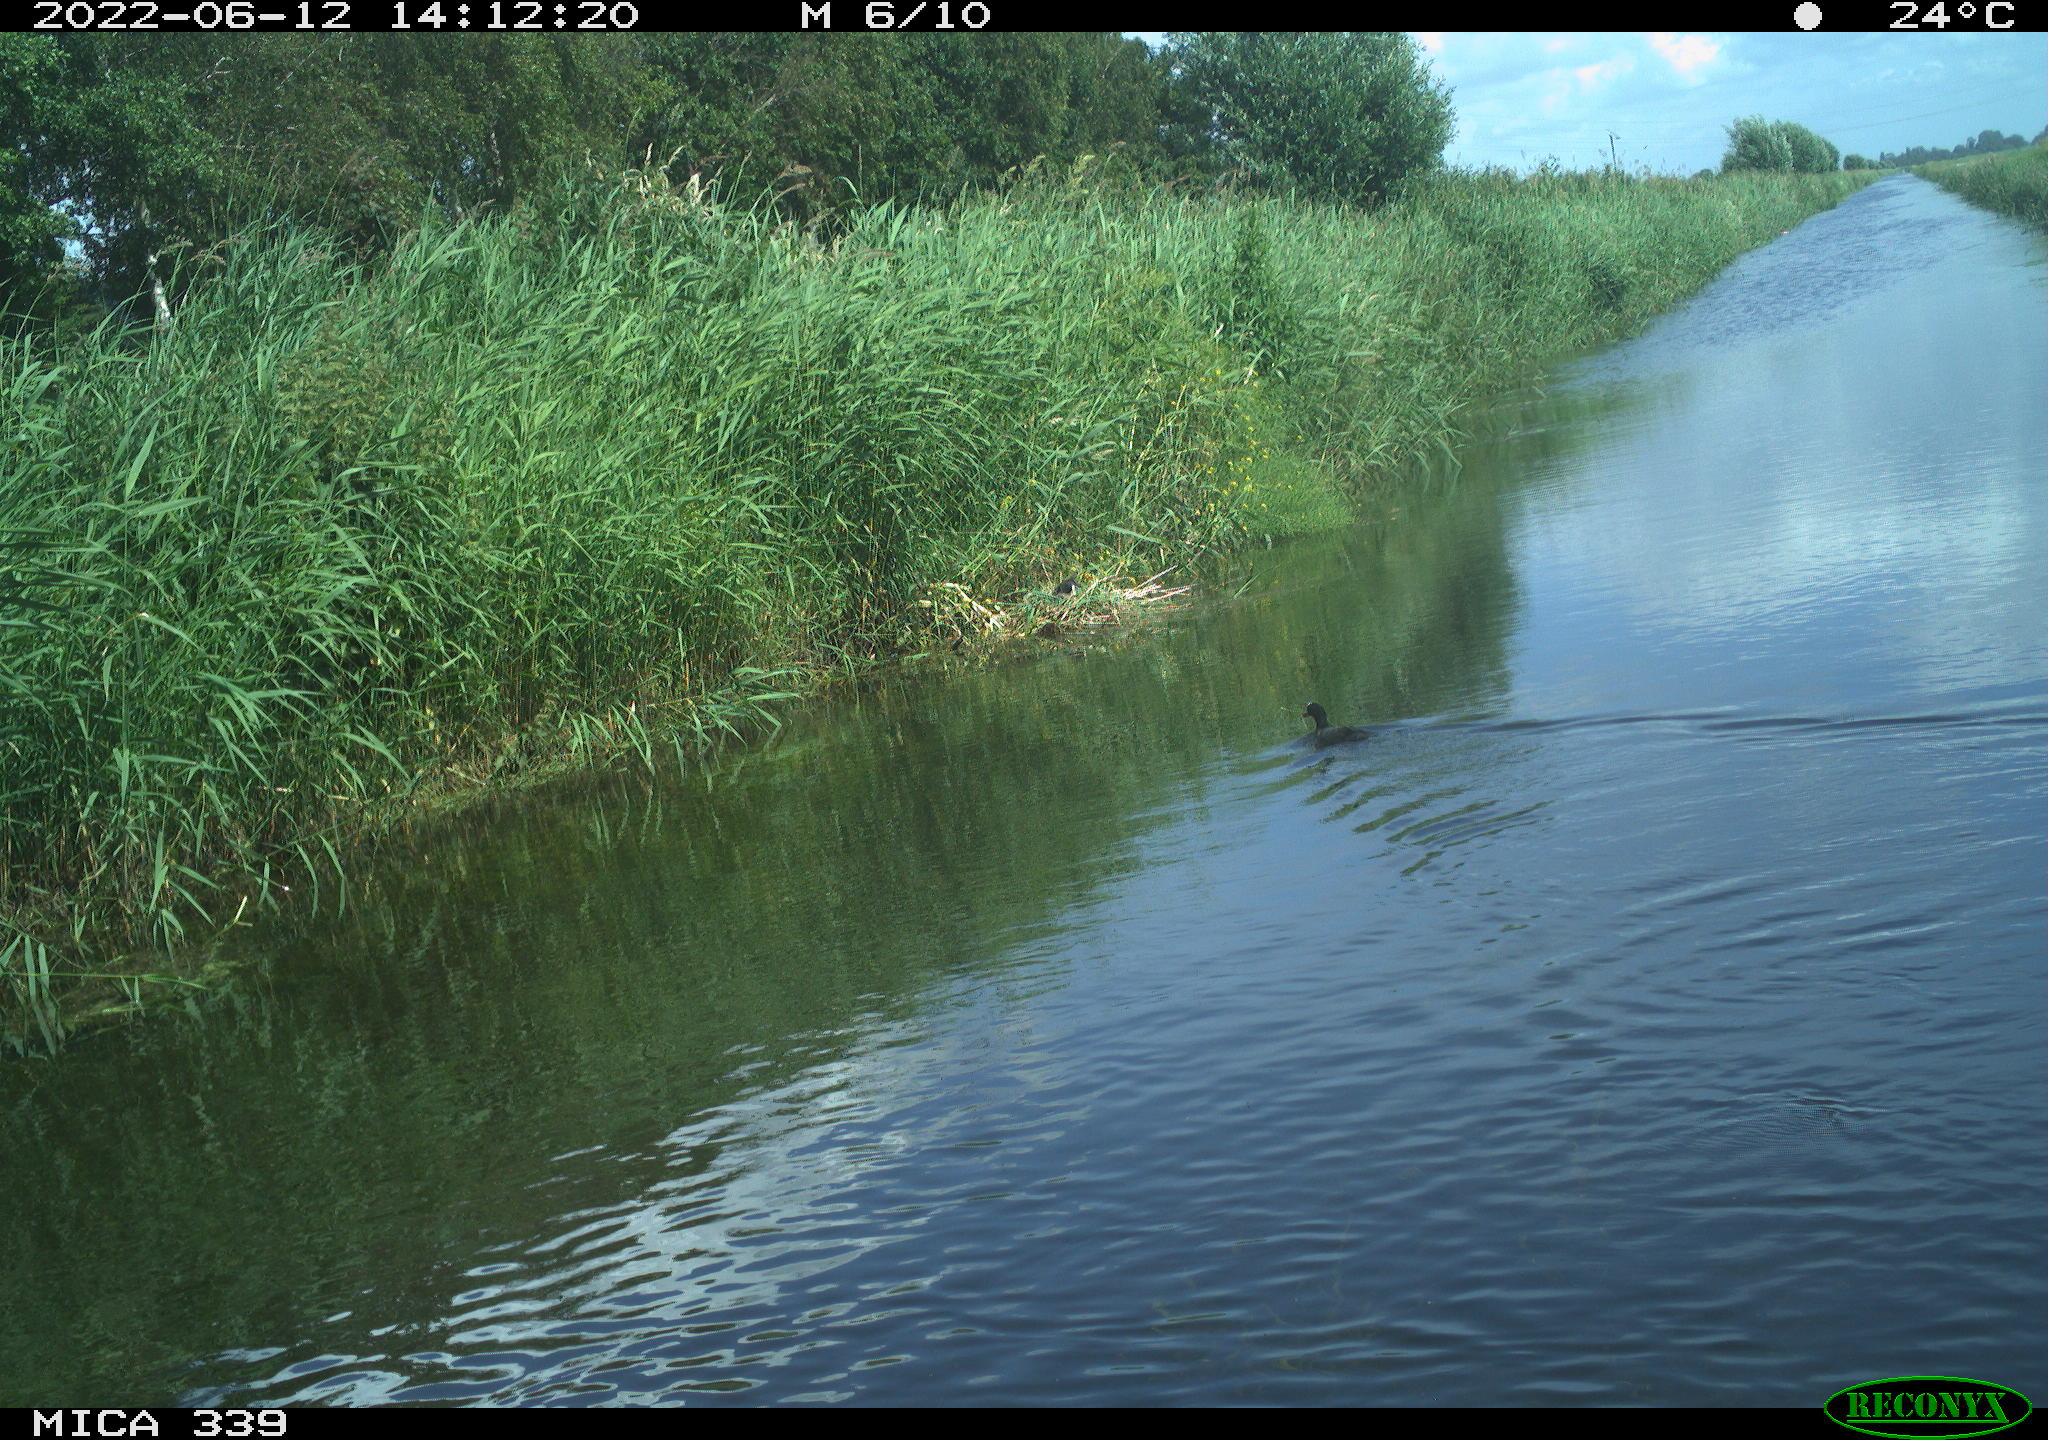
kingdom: Animalia
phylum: Chordata
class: Aves
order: Gruiformes
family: Rallidae
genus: Fulica
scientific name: Fulica atra
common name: Eurasian coot
